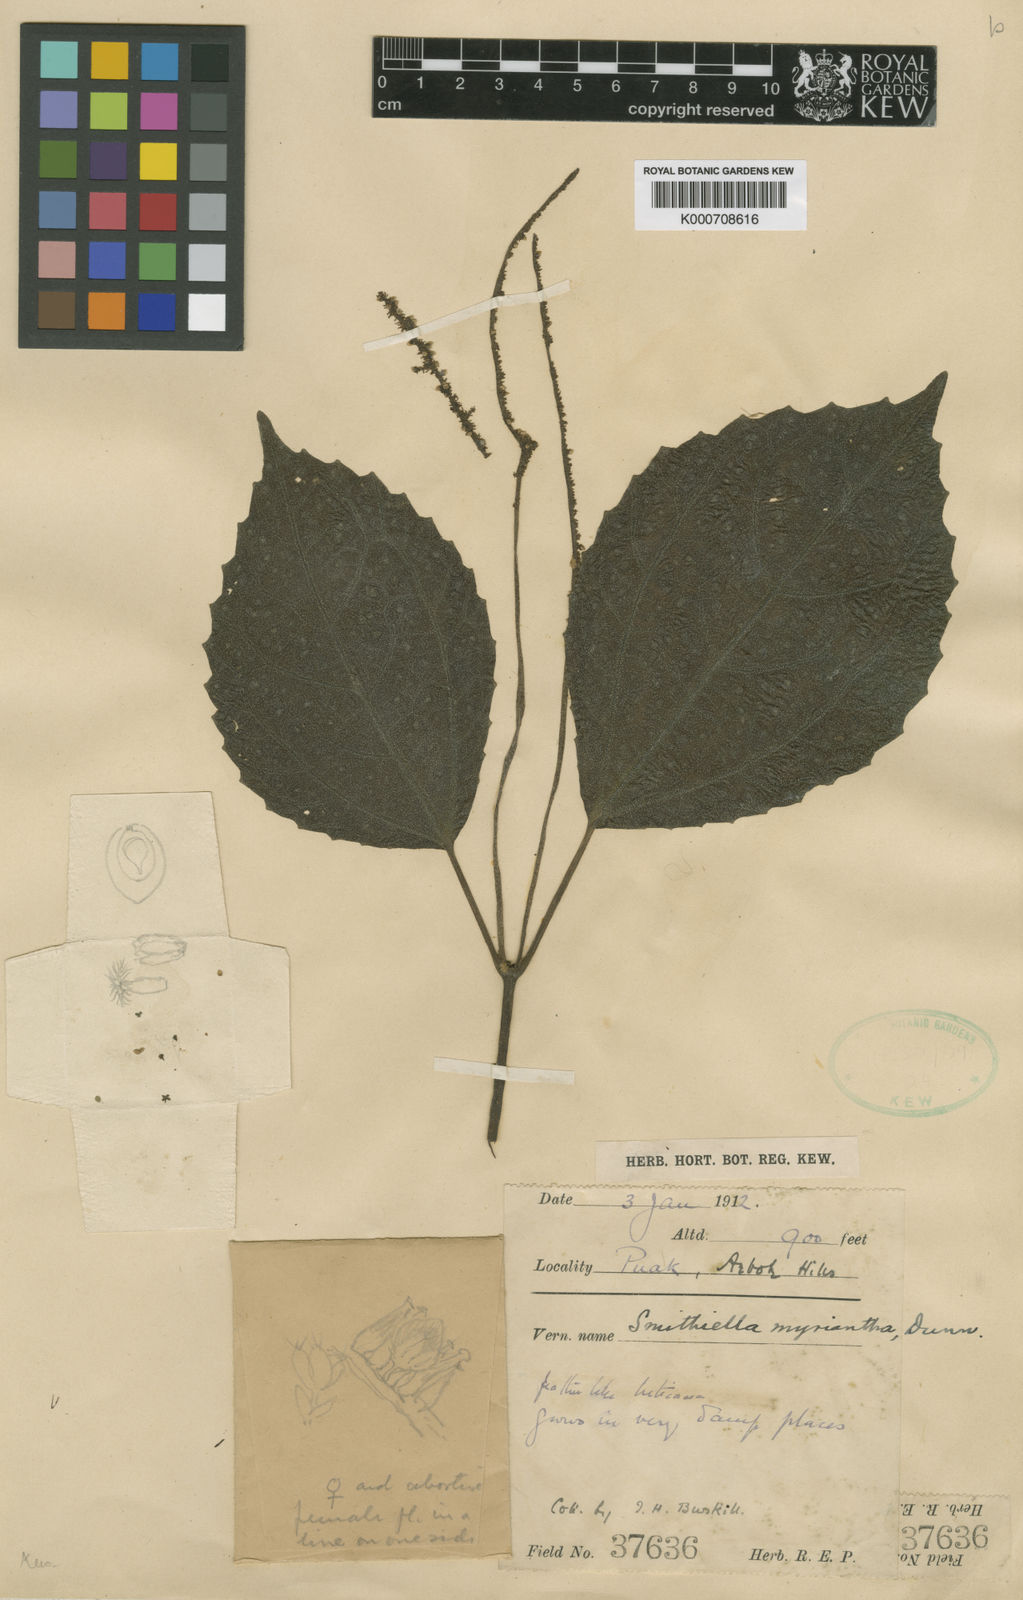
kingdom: Plantae
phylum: Tracheophyta
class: Magnoliopsida
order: Rosales
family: Urticaceae
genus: Pilea
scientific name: Pilea myriantha
